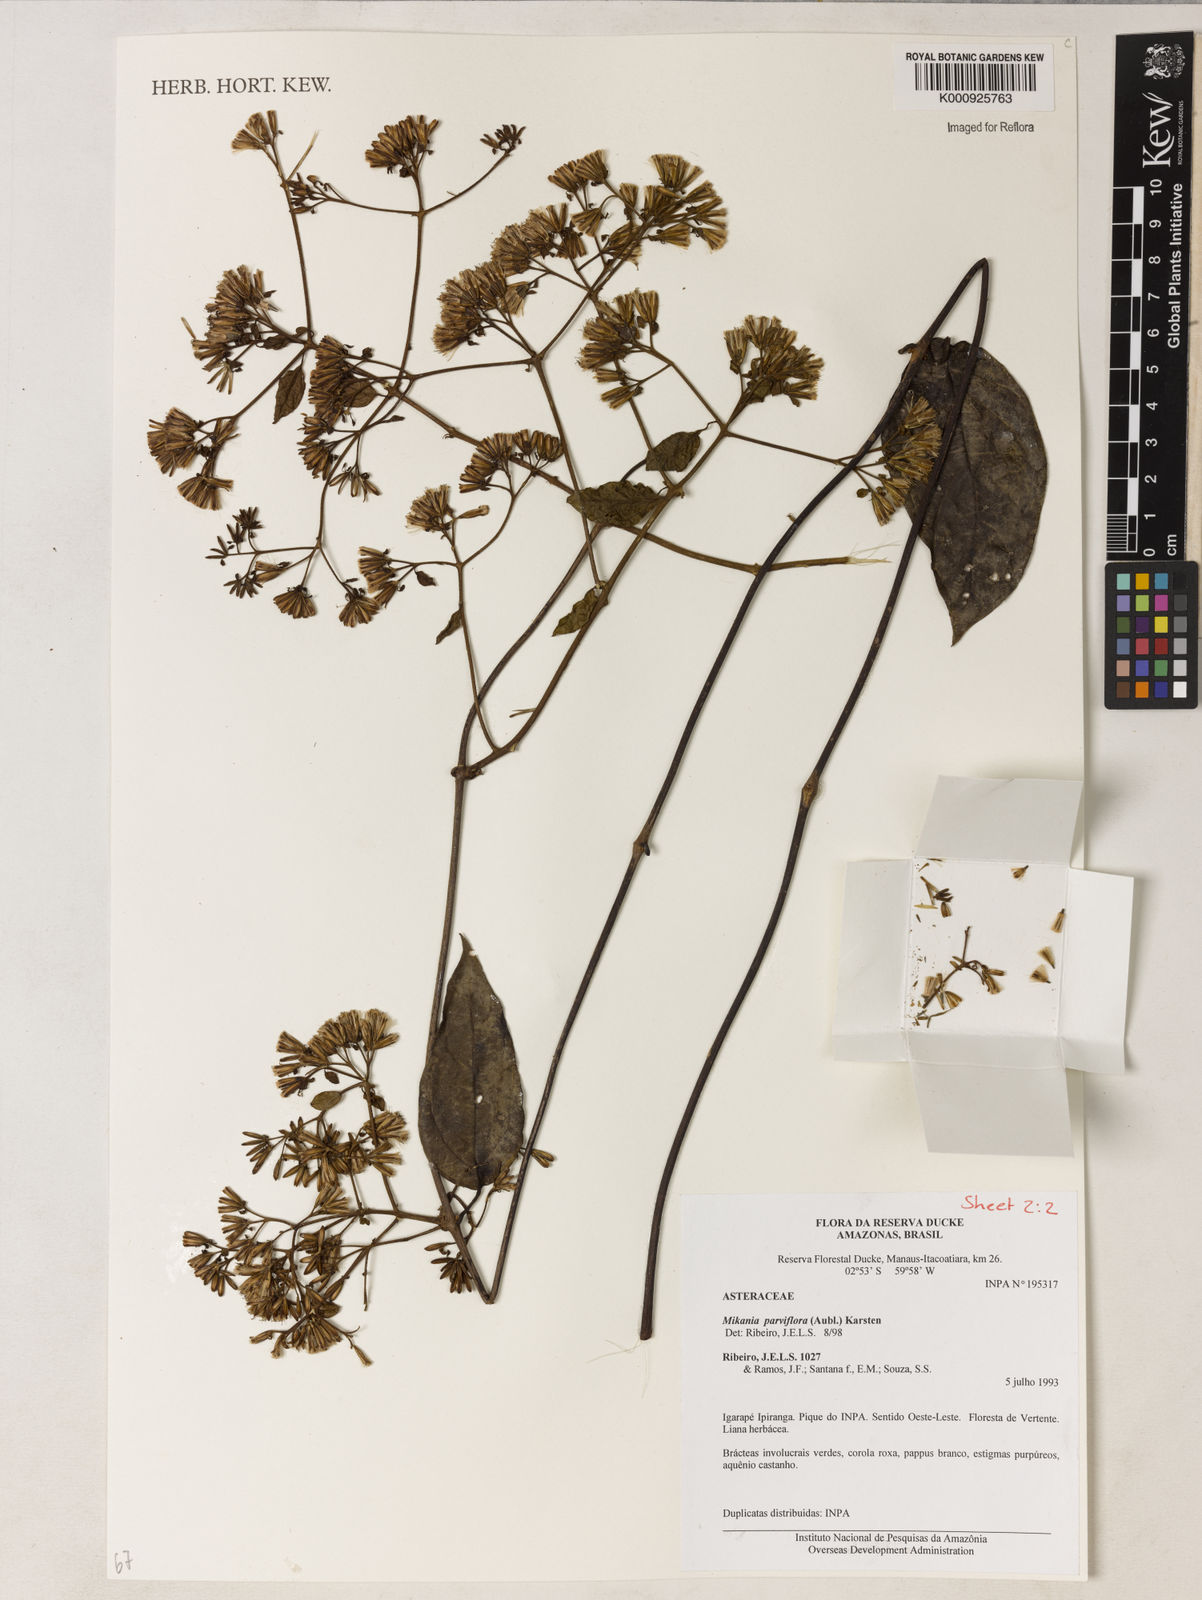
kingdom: Plantae
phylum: Tracheophyta
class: Magnoliopsida
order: Asterales
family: Asteraceae
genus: Mikania
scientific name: Mikania parvifolia
